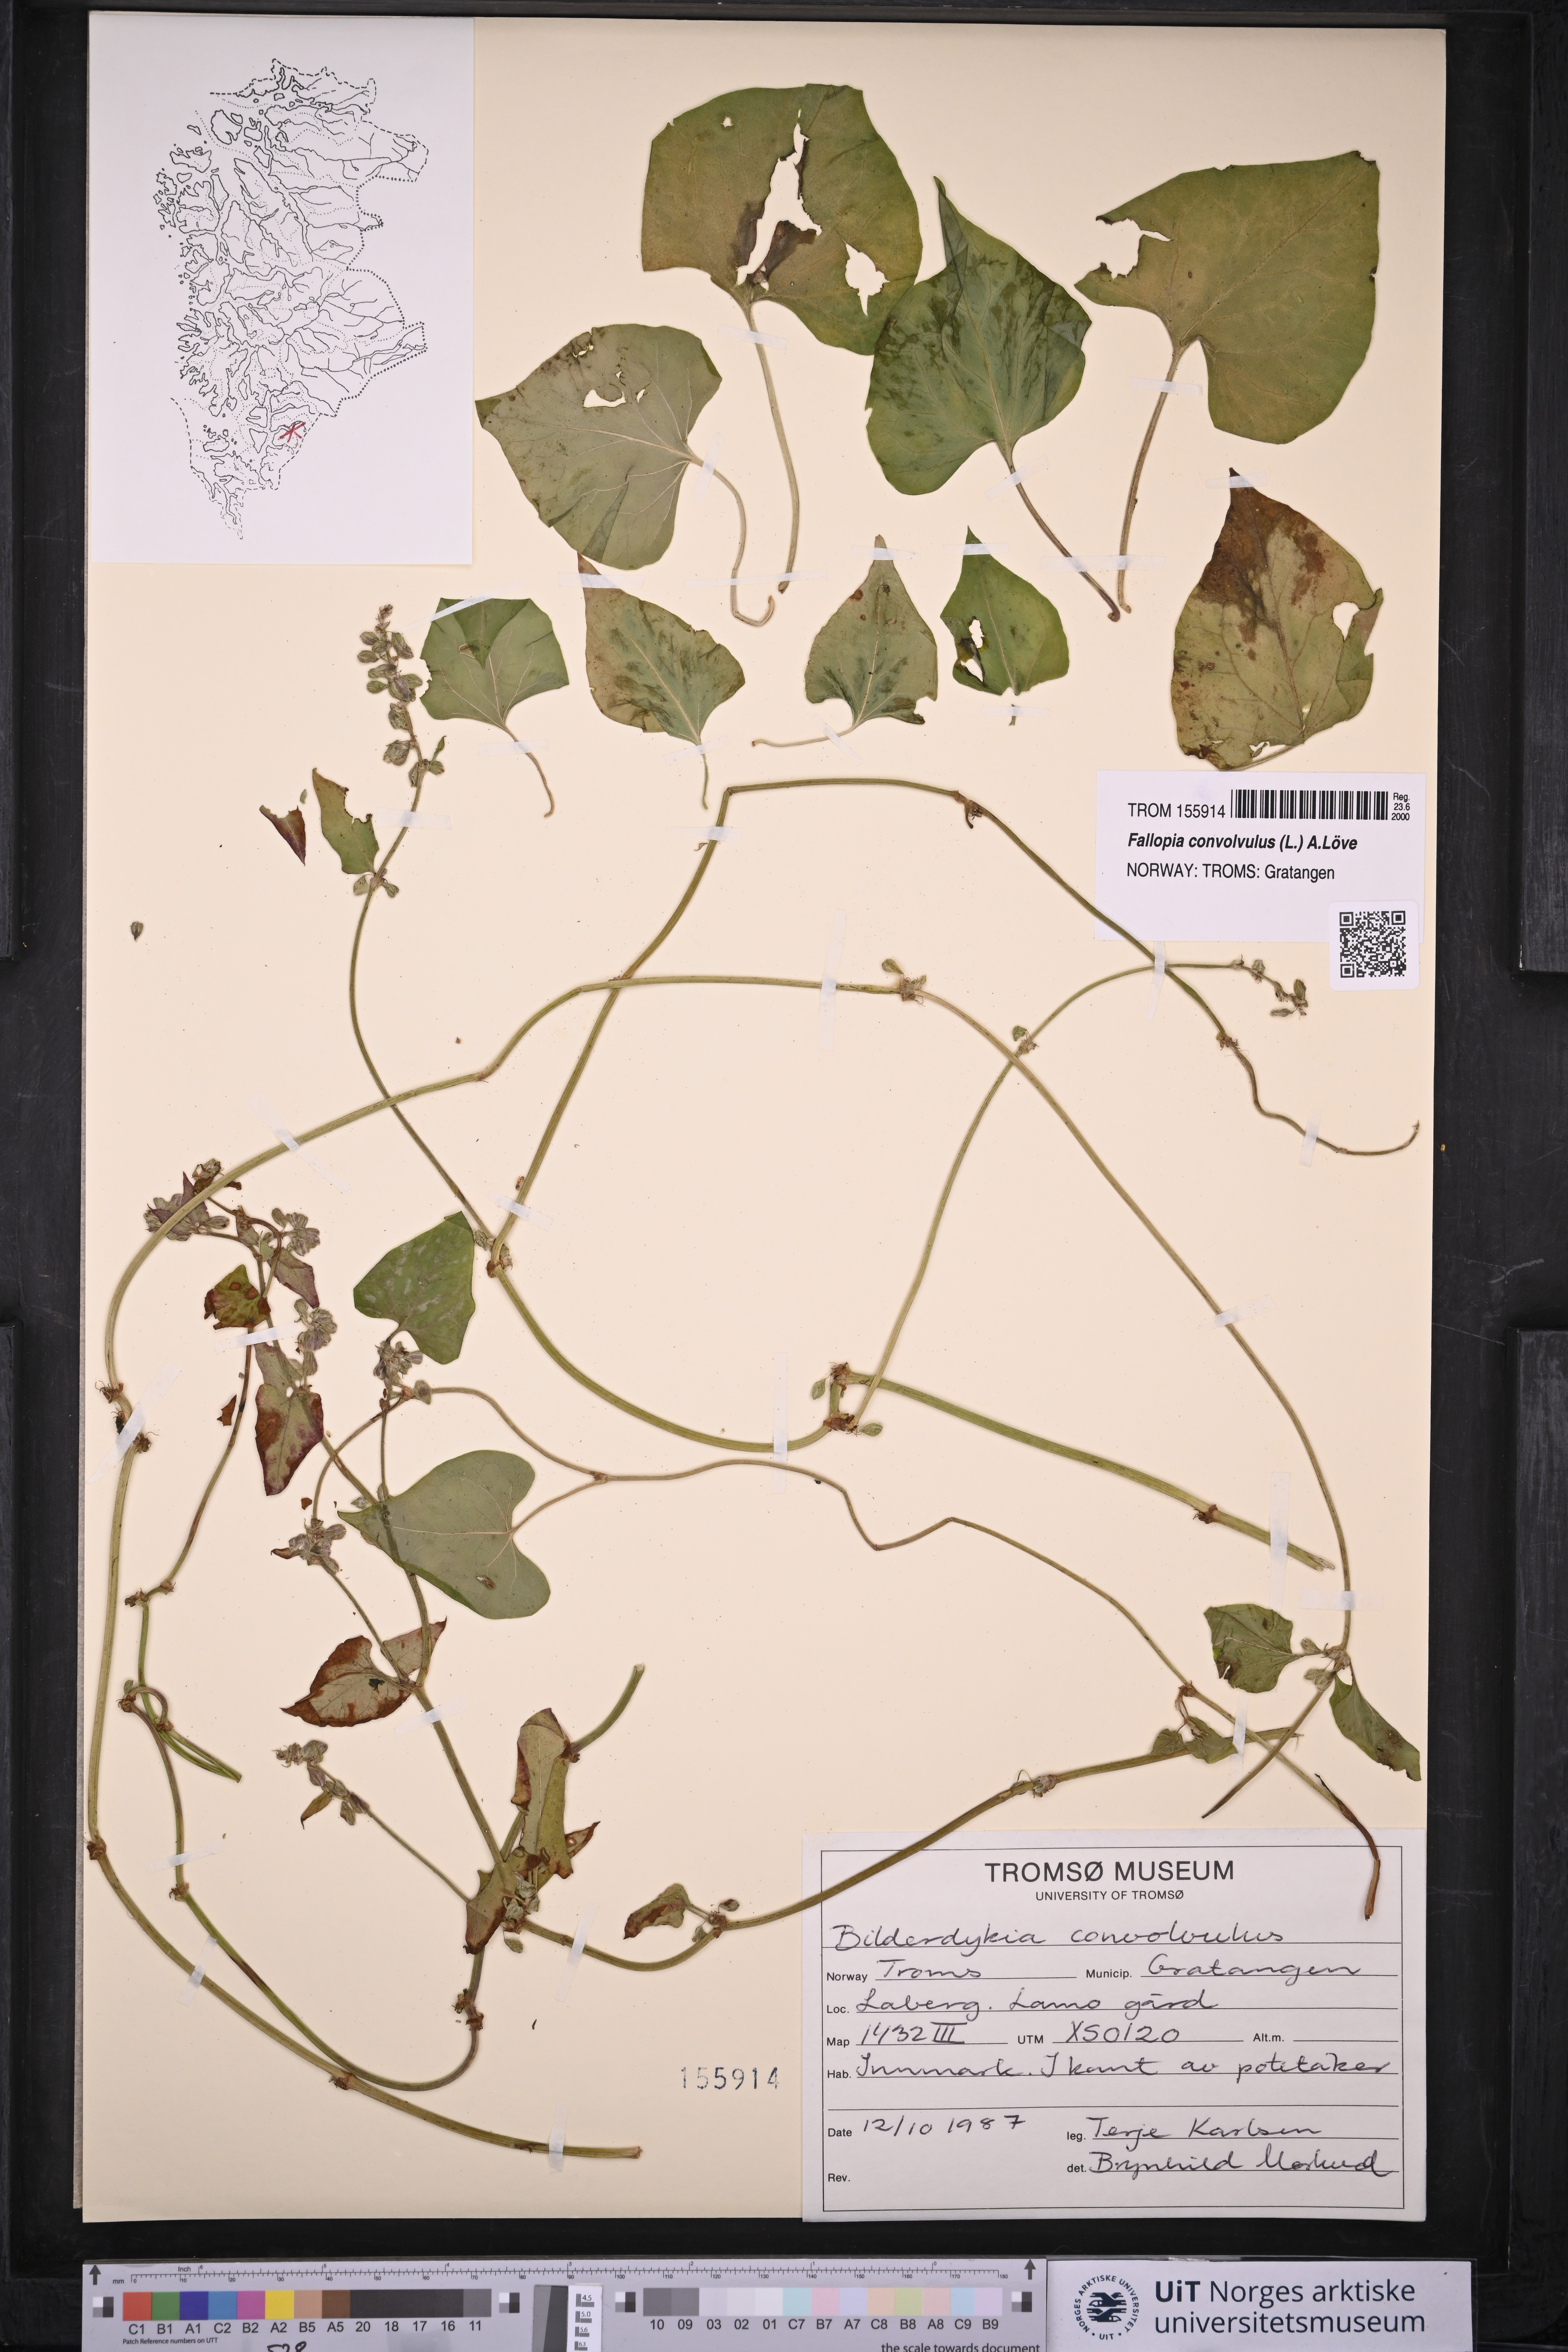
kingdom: Plantae
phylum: Tracheophyta
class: Magnoliopsida
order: Caryophyllales
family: Polygonaceae
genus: Fallopia
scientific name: Fallopia convolvulus
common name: Black bindweed
